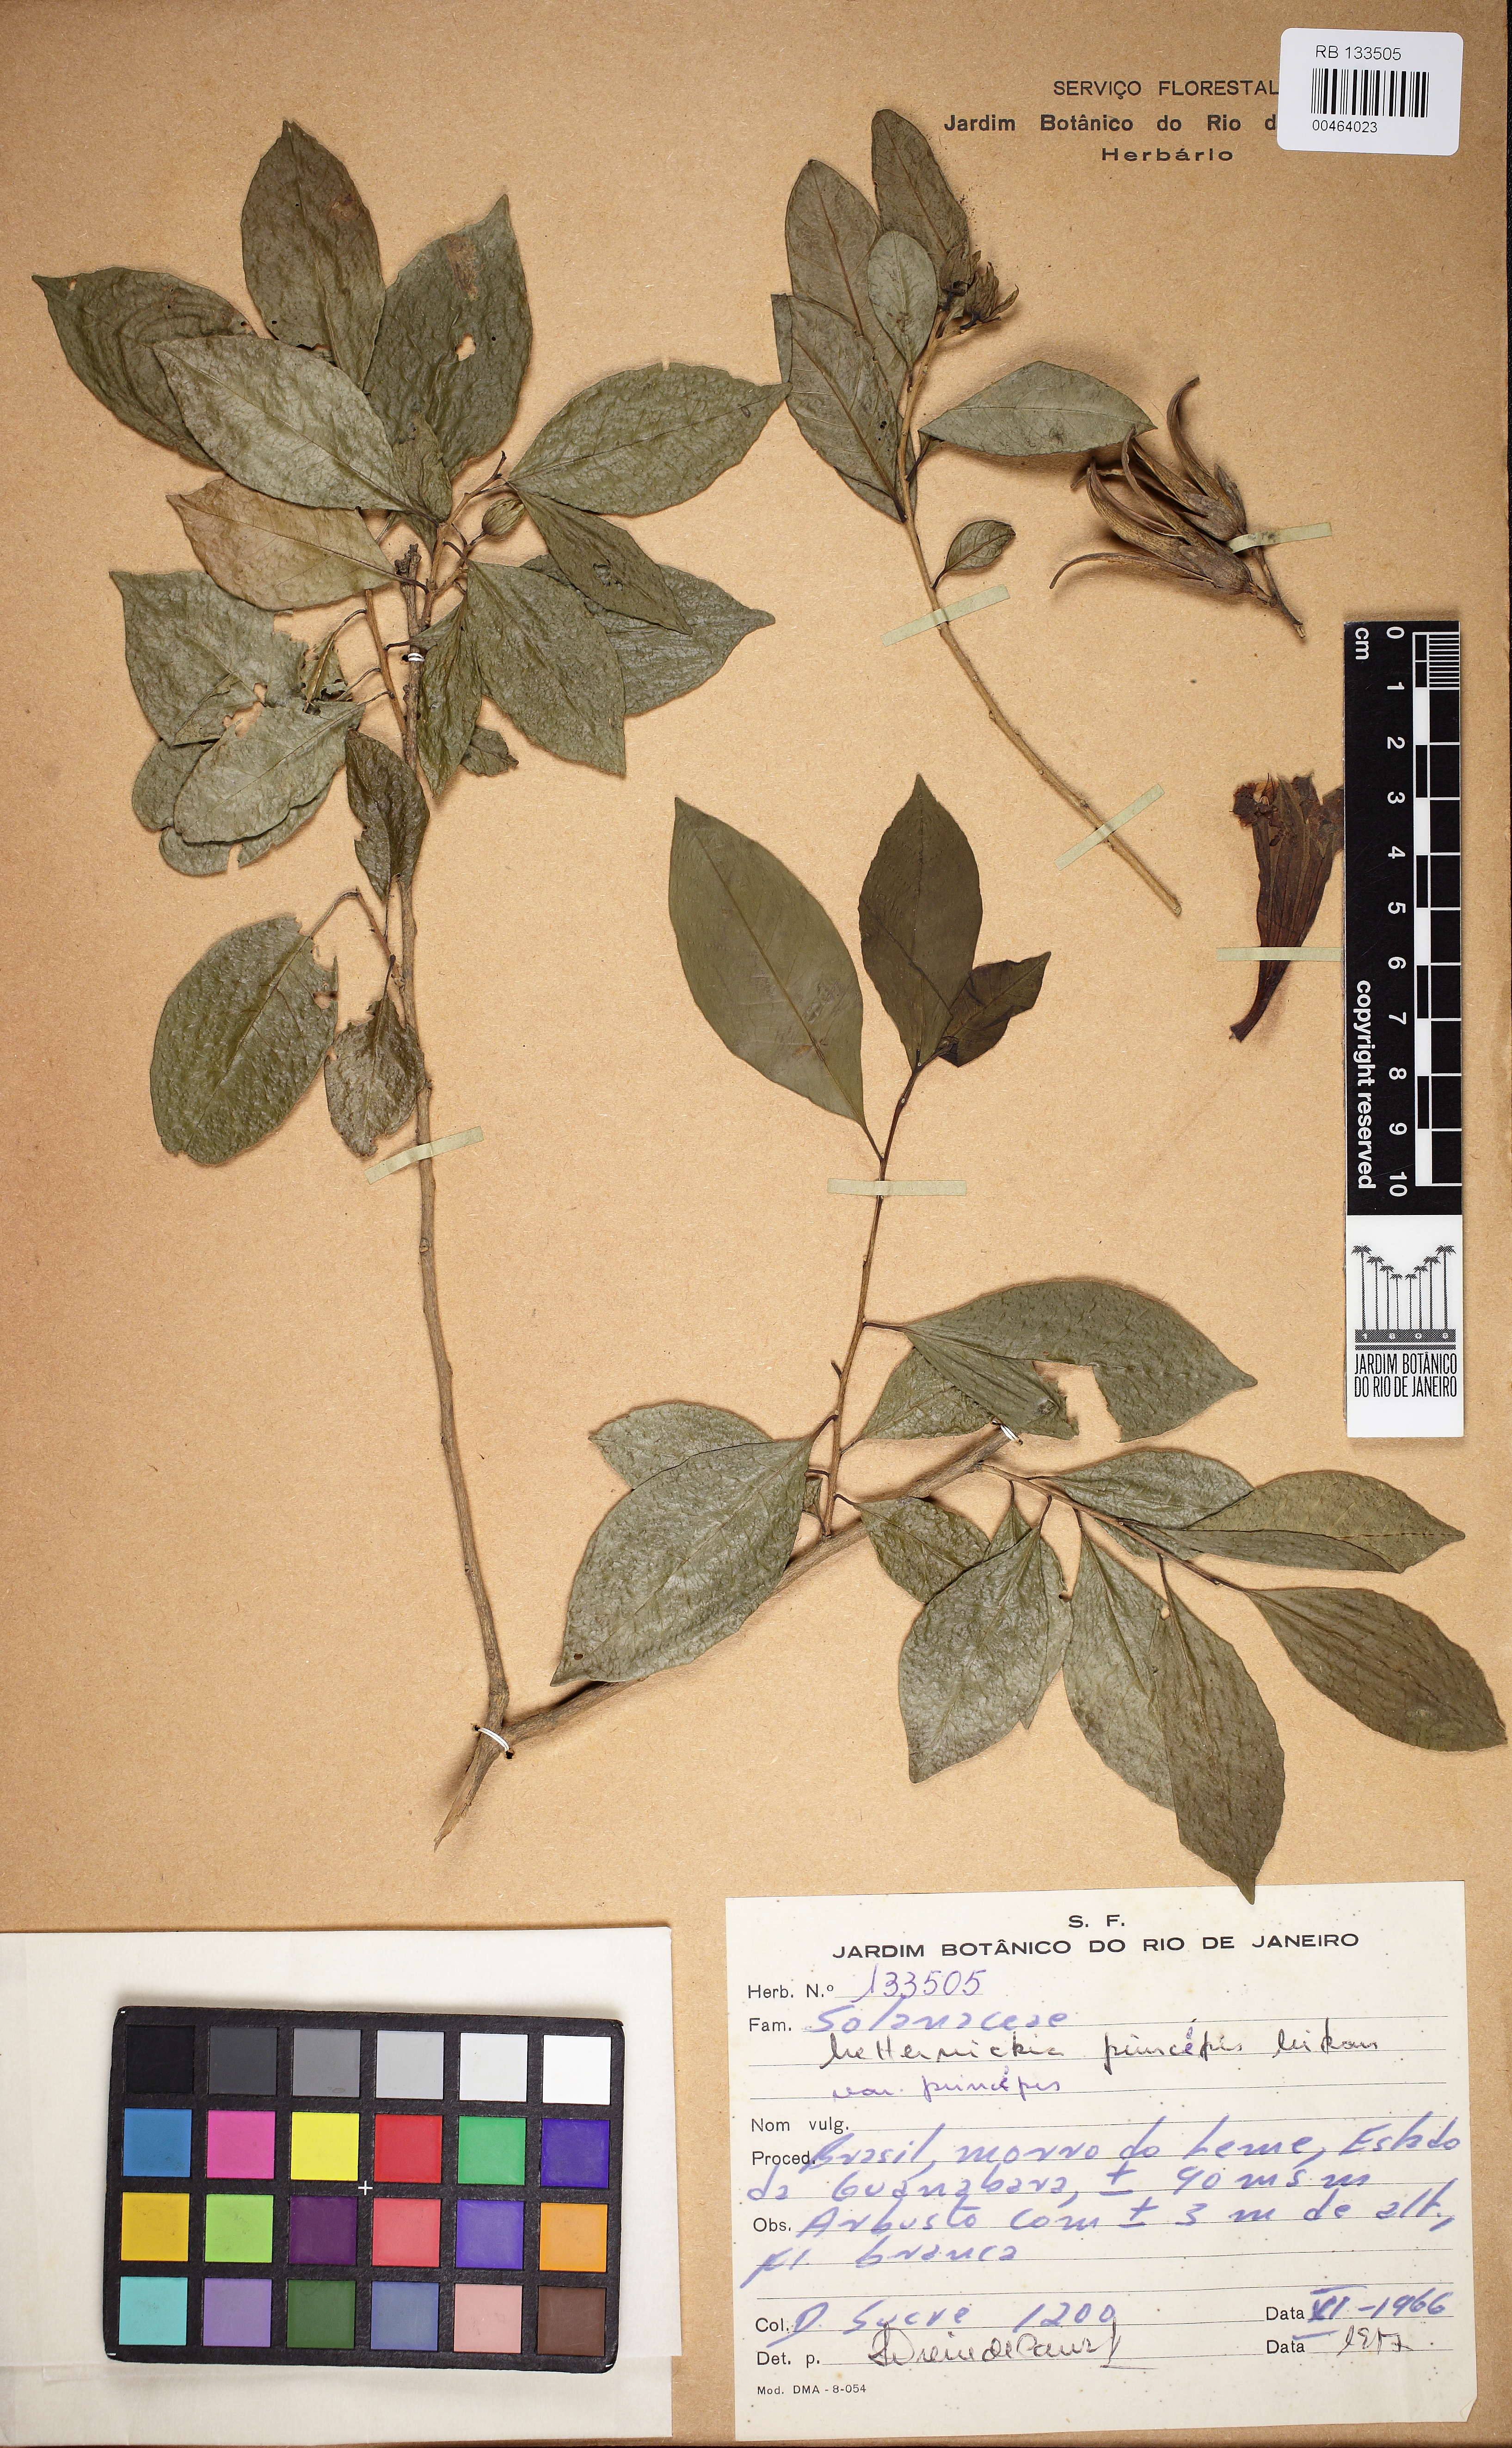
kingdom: Plantae
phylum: Tracheophyta
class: Magnoliopsida
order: Solanales
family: Solanaceae
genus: Metternichia
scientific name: Metternichia princeps
